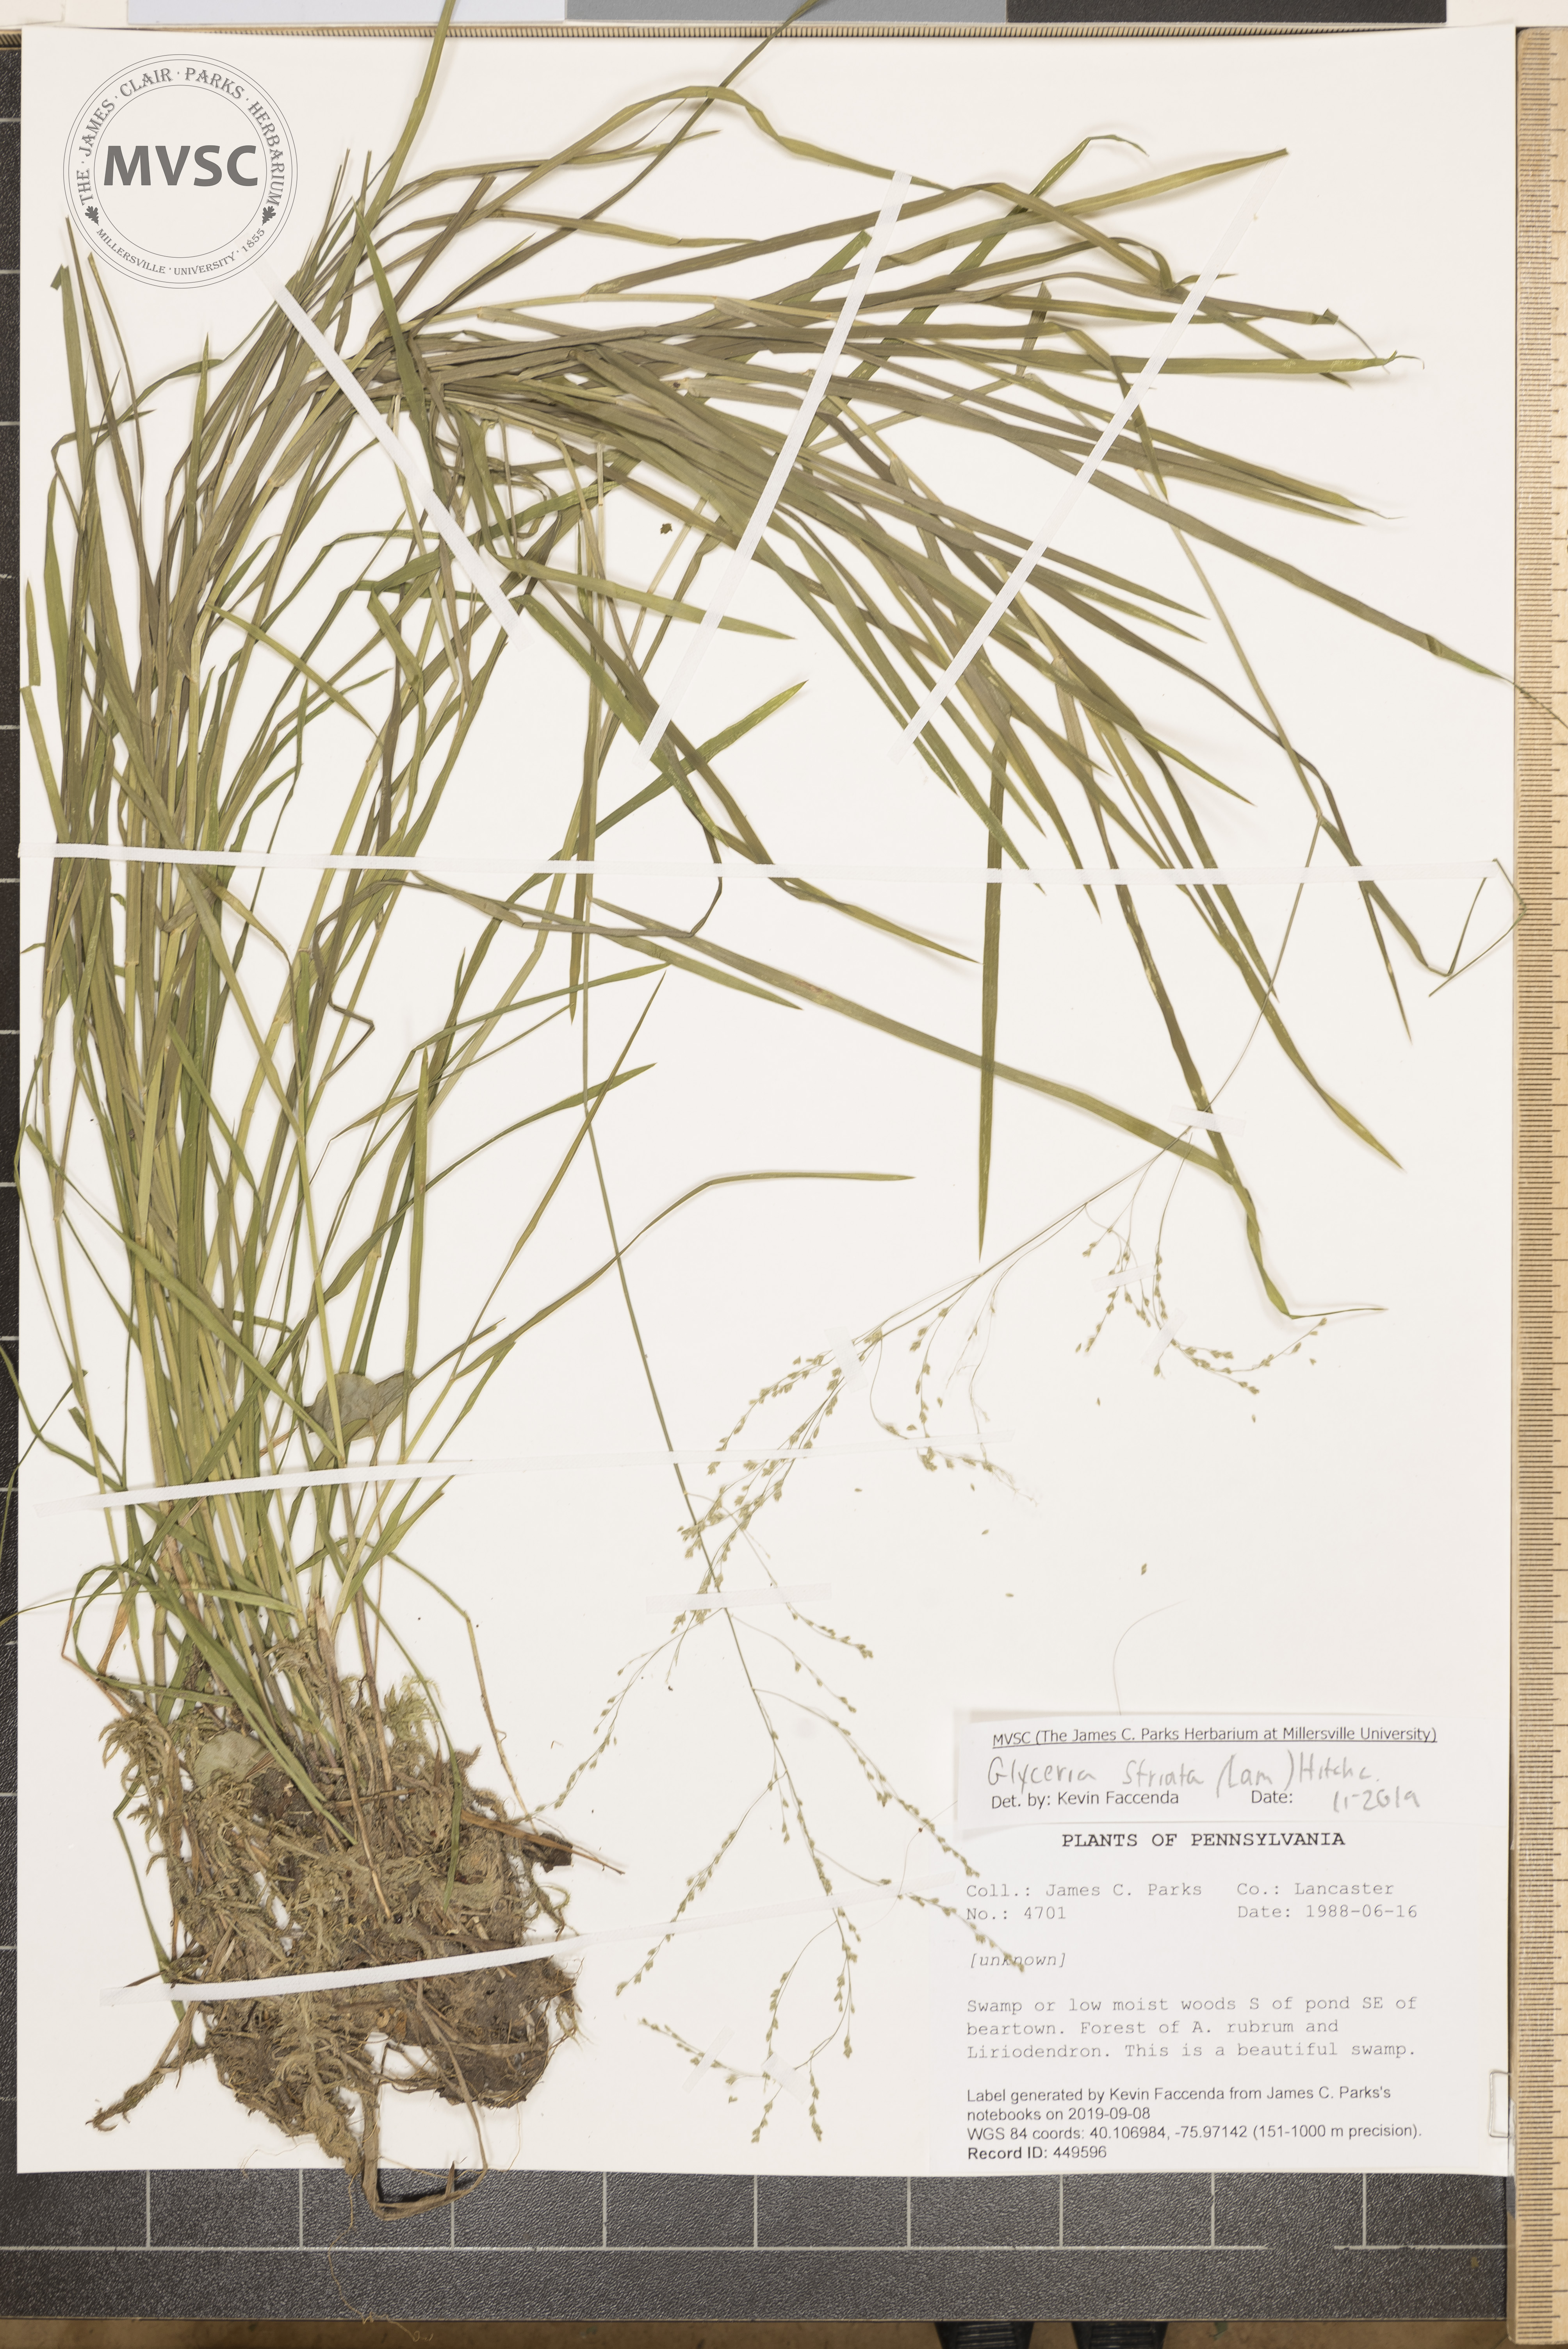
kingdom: Plantae
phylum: Tracheophyta
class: Liliopsida
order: Poales
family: Poaceae
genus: Glyceria
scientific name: Glyceria striata
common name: Fowl manna grass
